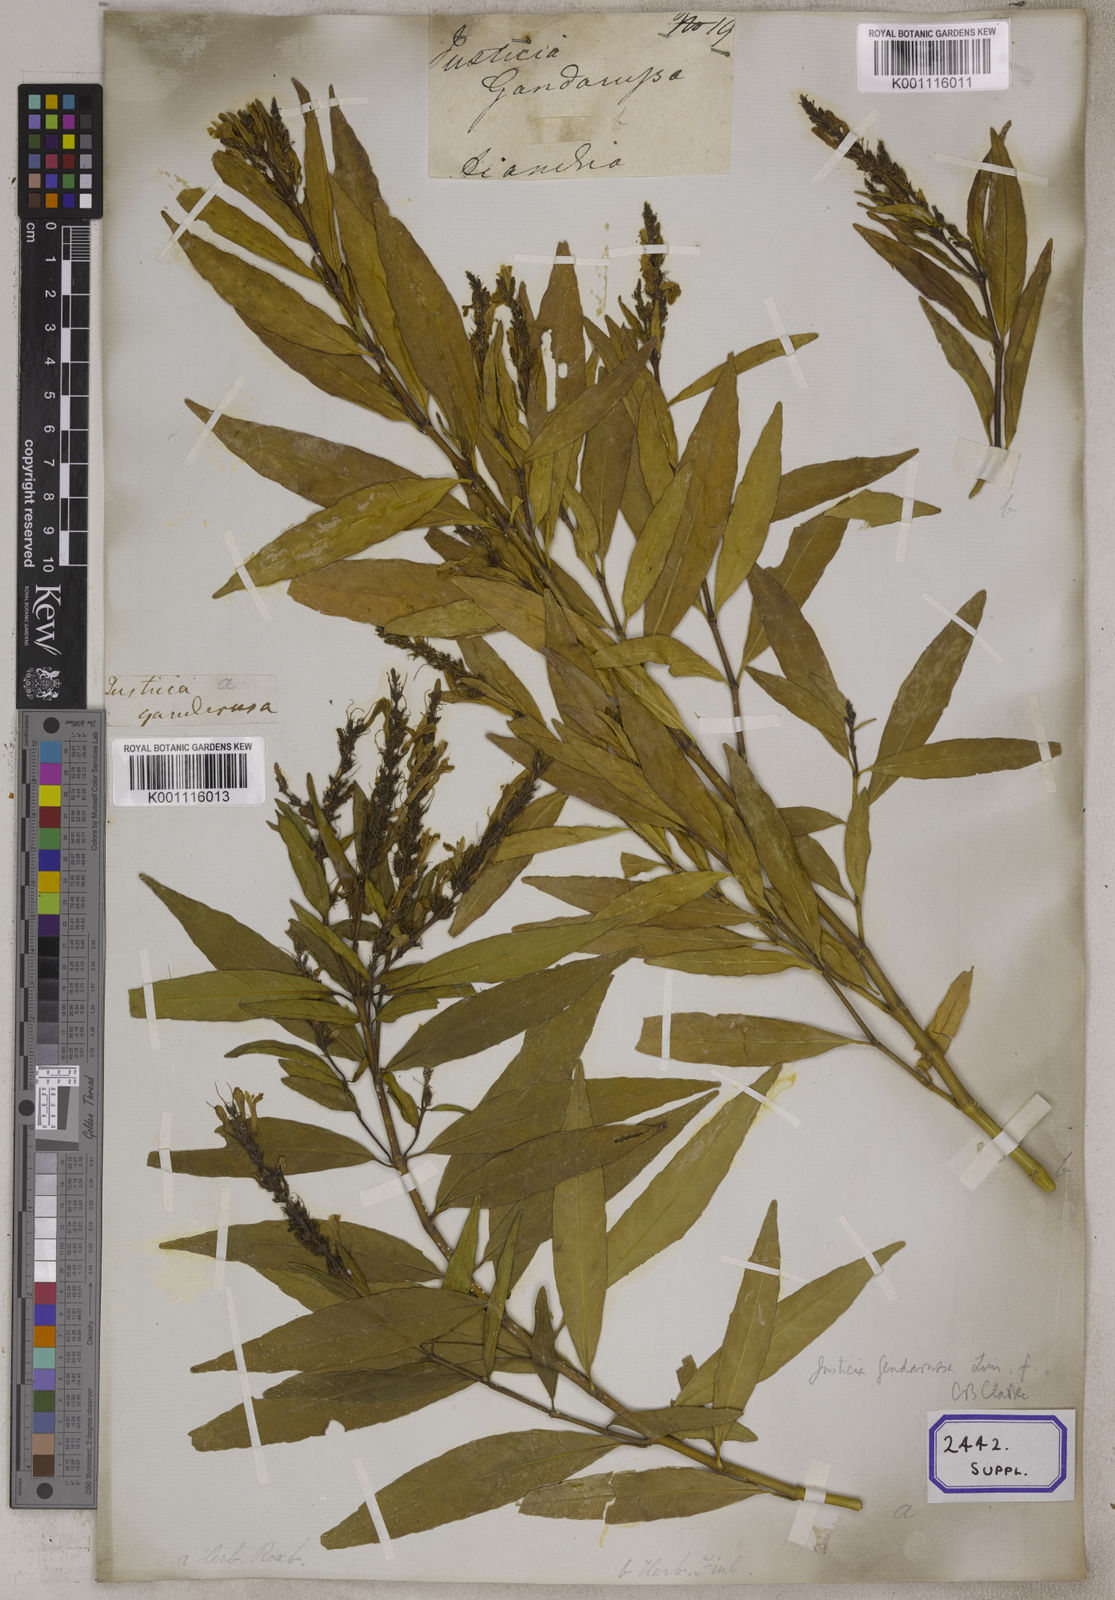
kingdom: Plantae
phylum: Tracheophyta
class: Magnoliopsida
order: Lamiales
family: Acanthaceae
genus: Justicia
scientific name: Justicia
